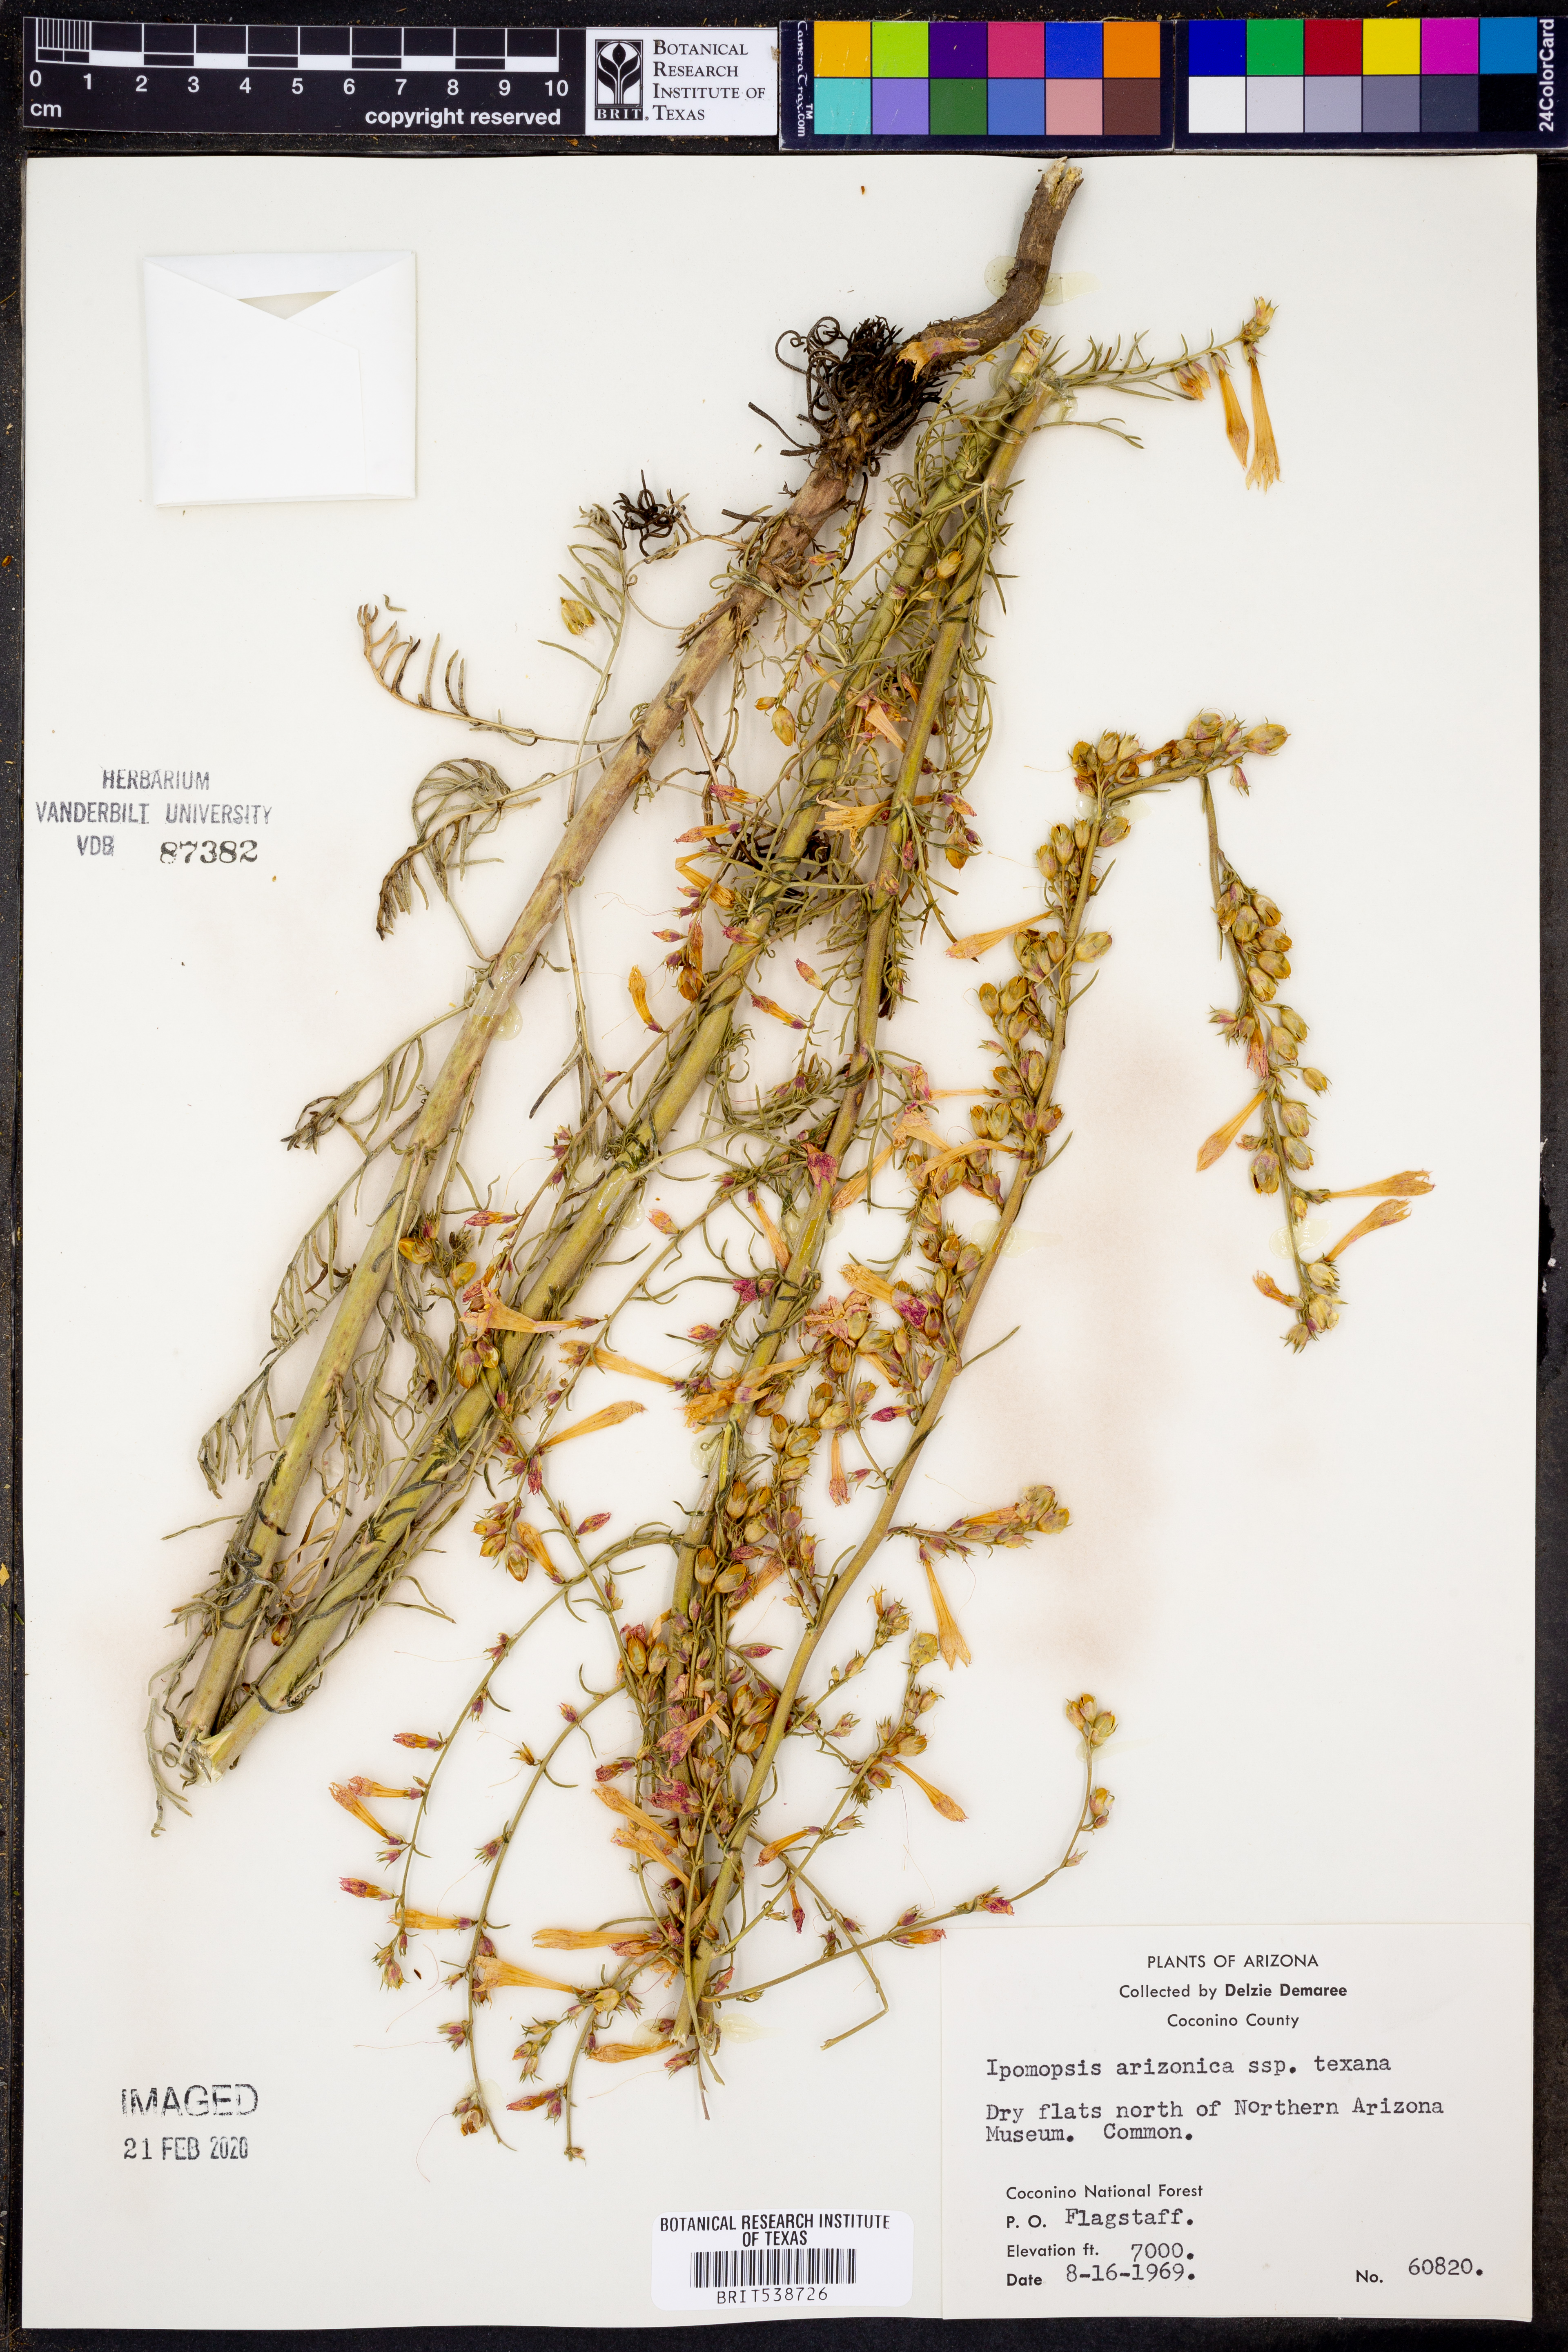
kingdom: Plantae
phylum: Tracheophyta
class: Magnoliopsida
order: Ericales
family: Polemoniaceae
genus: Ipomopsis
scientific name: Ipomopsis aggregata
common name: Scarlet gilia
